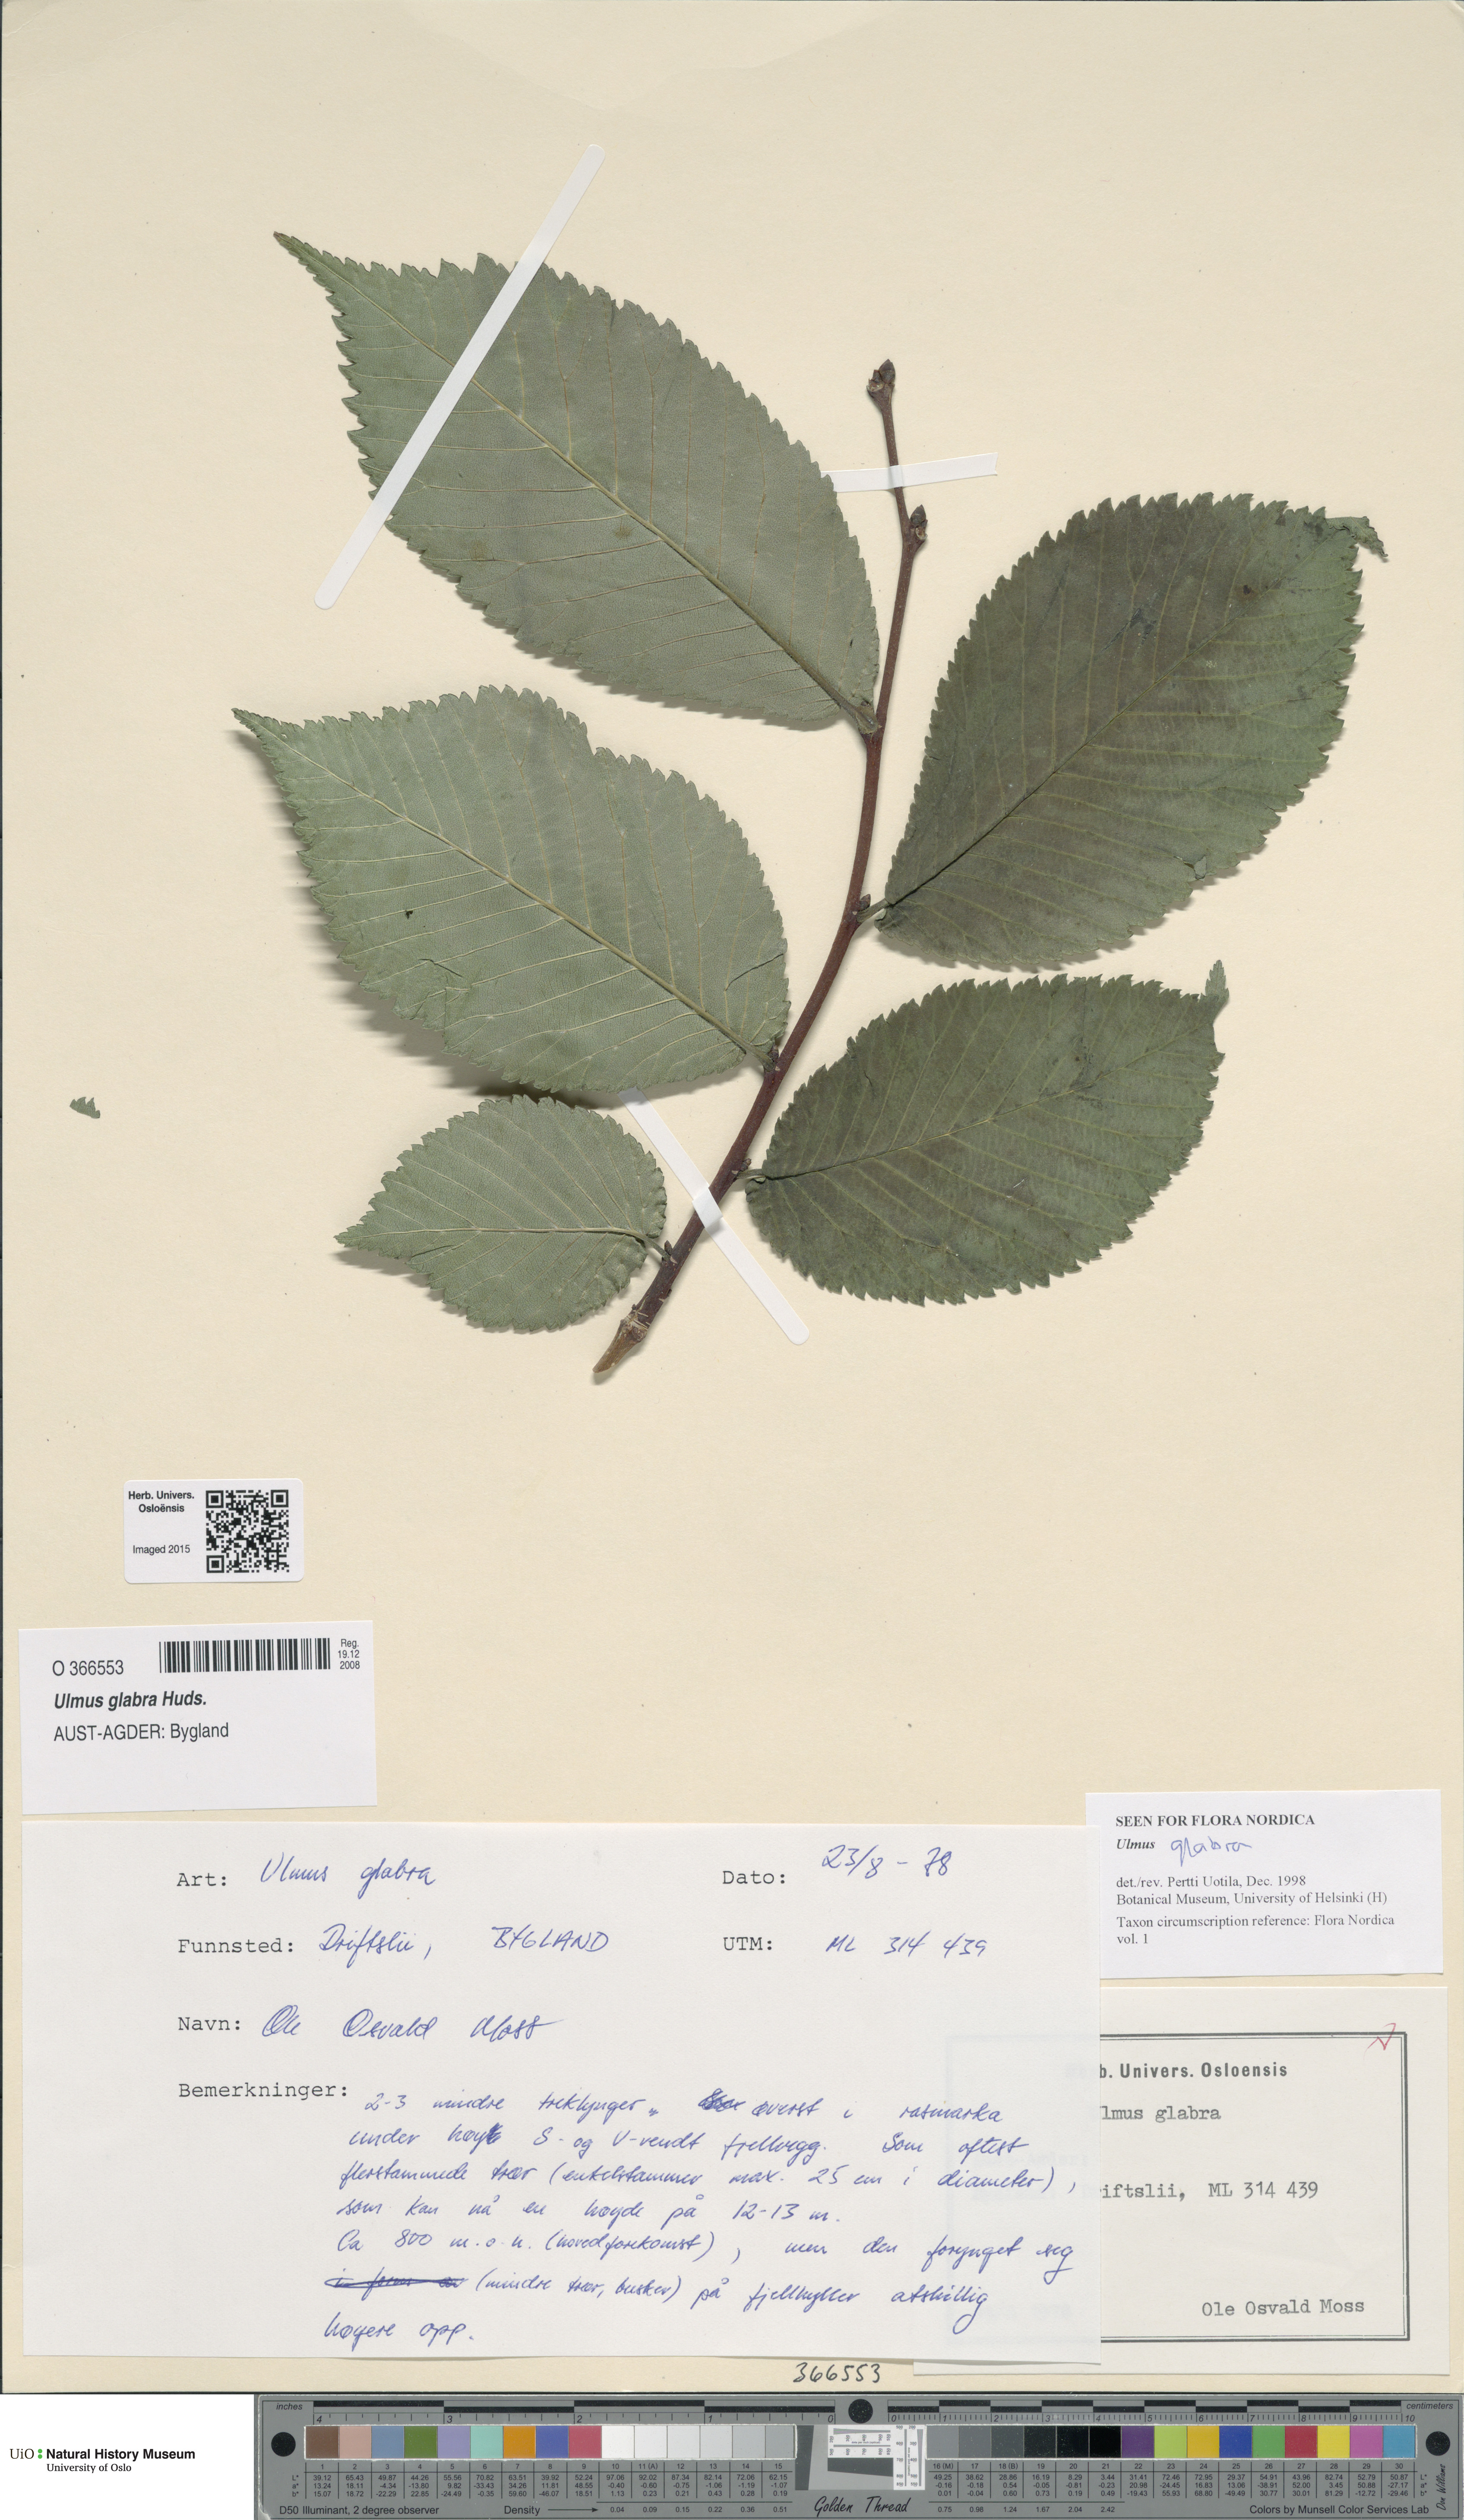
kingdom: Plantae
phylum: Tracheophyta
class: Magnoliopsida
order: Rosales
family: Ulmaceae
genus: Ulmus
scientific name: Ulmus glabra
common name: Wych elm
